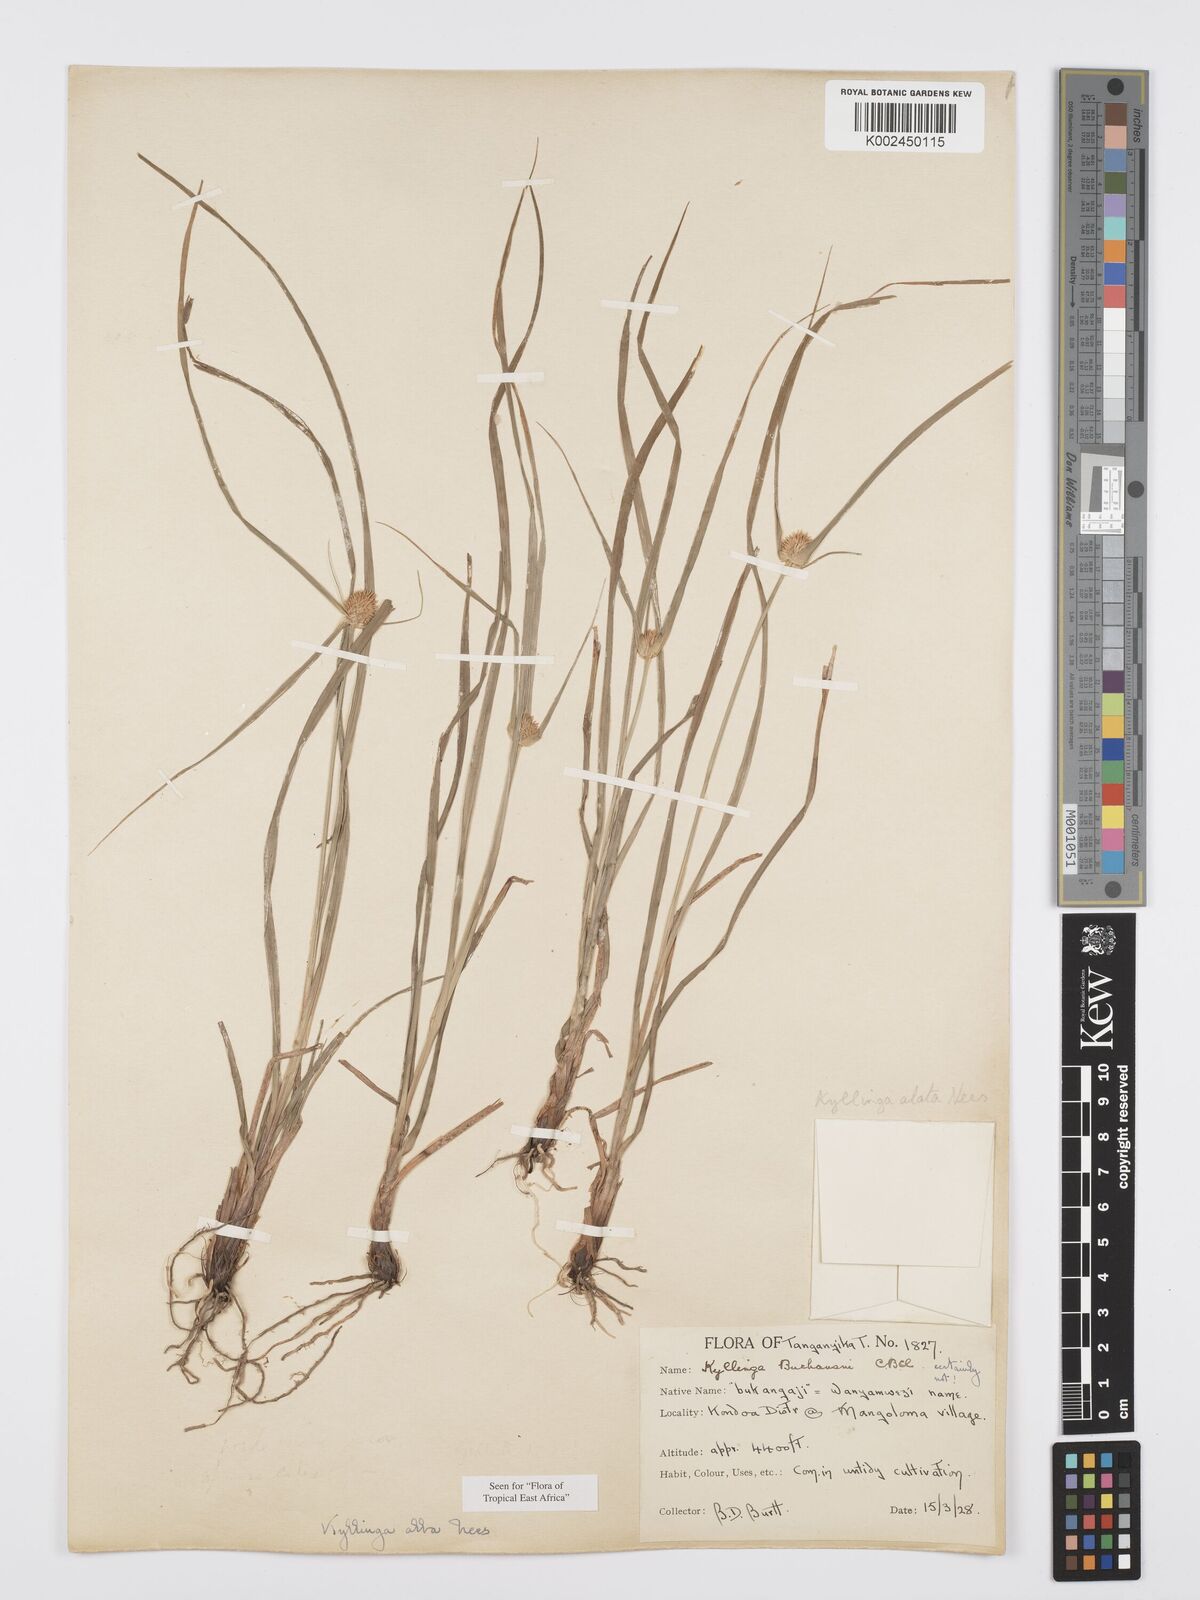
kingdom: Plantae
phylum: Tracheophyta
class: Liliopsida
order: Poales
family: Cyperaceae
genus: Cyperus
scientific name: Cyperus
